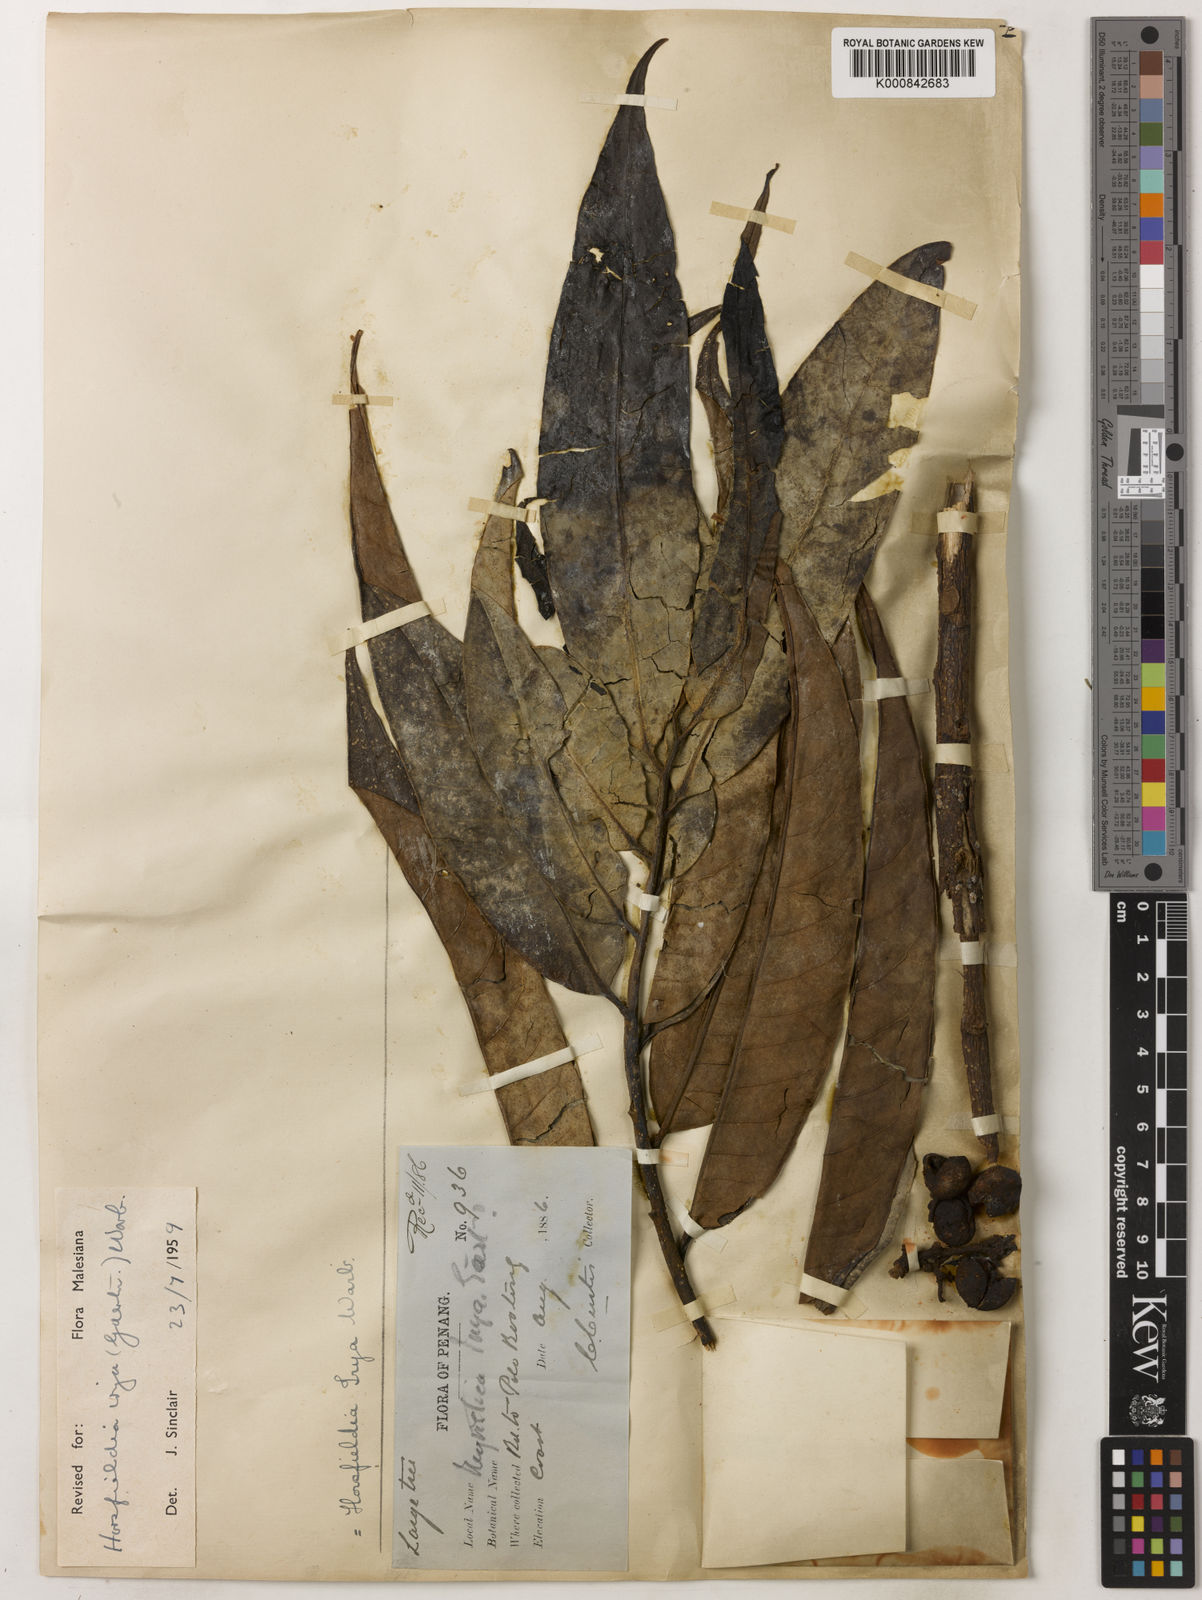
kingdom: Plantae
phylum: Tracheophyta
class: Magnoliopsida
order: Magnoliales
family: Myristicaceae
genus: Horsfieldia
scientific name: Horsfieldia irya
